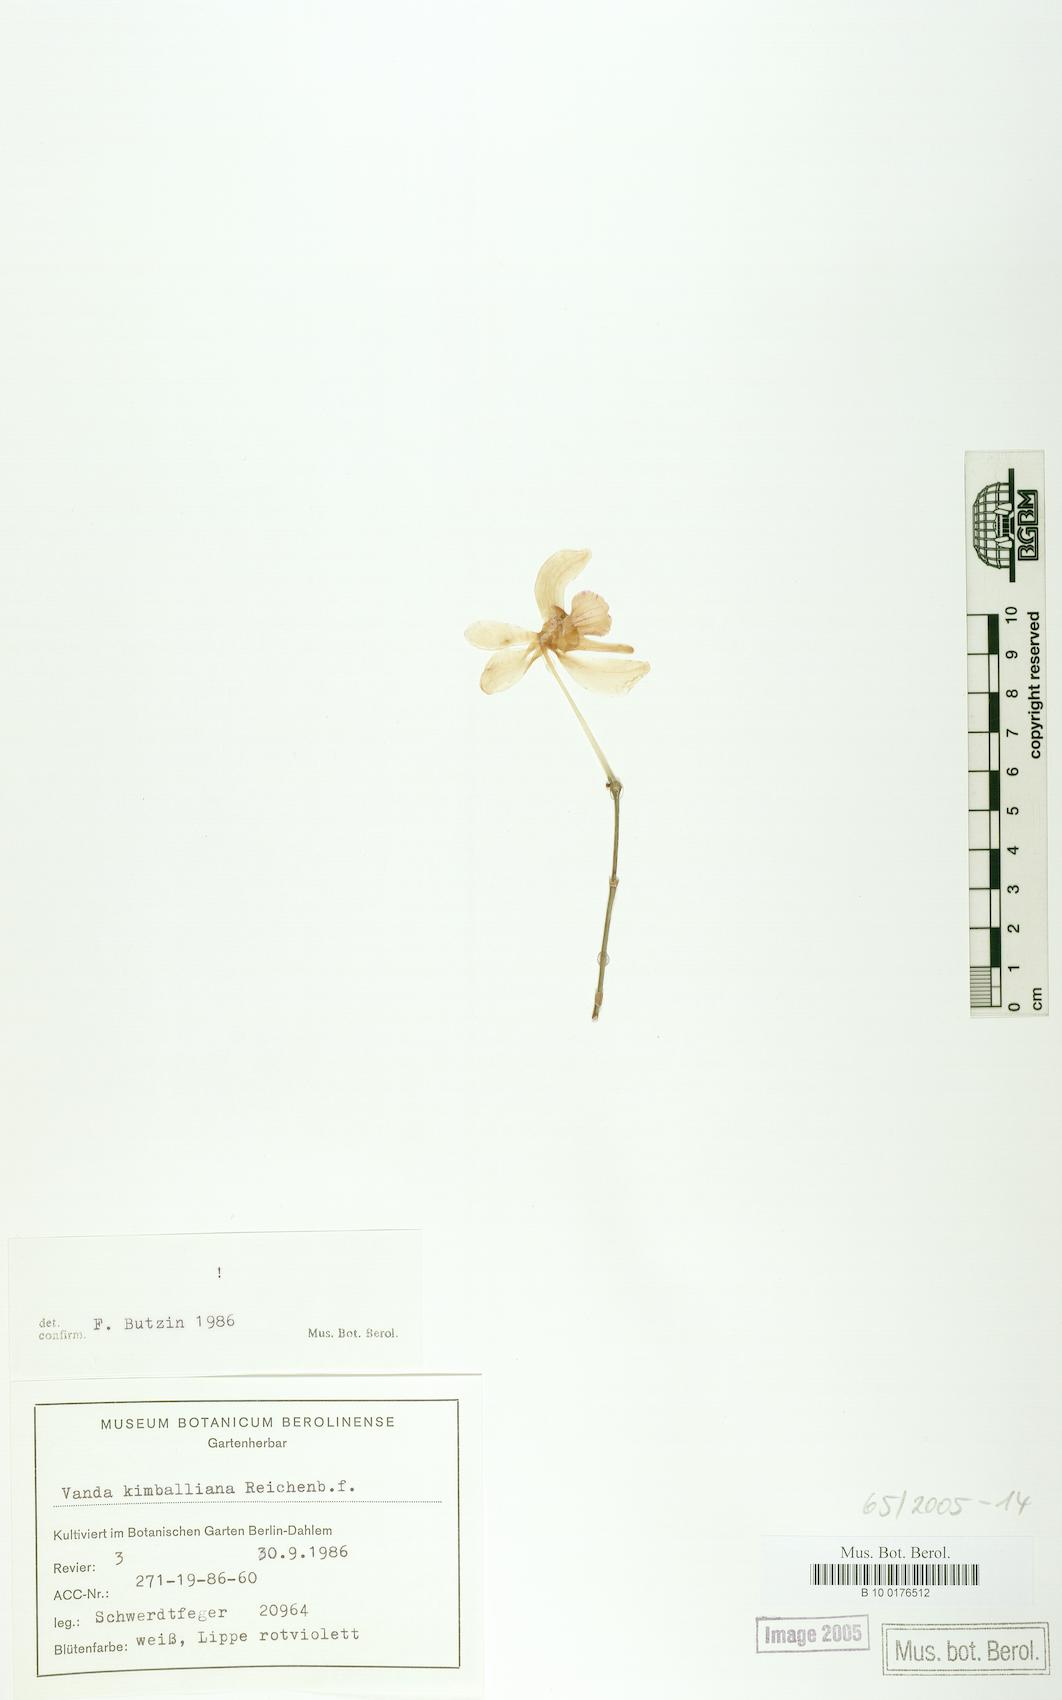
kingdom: Plantae
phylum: Tracheophyta
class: Liliopsida
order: Asparagales
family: Orchidaceae
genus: Holcoglossum
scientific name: Holcoglossum kimballianum
